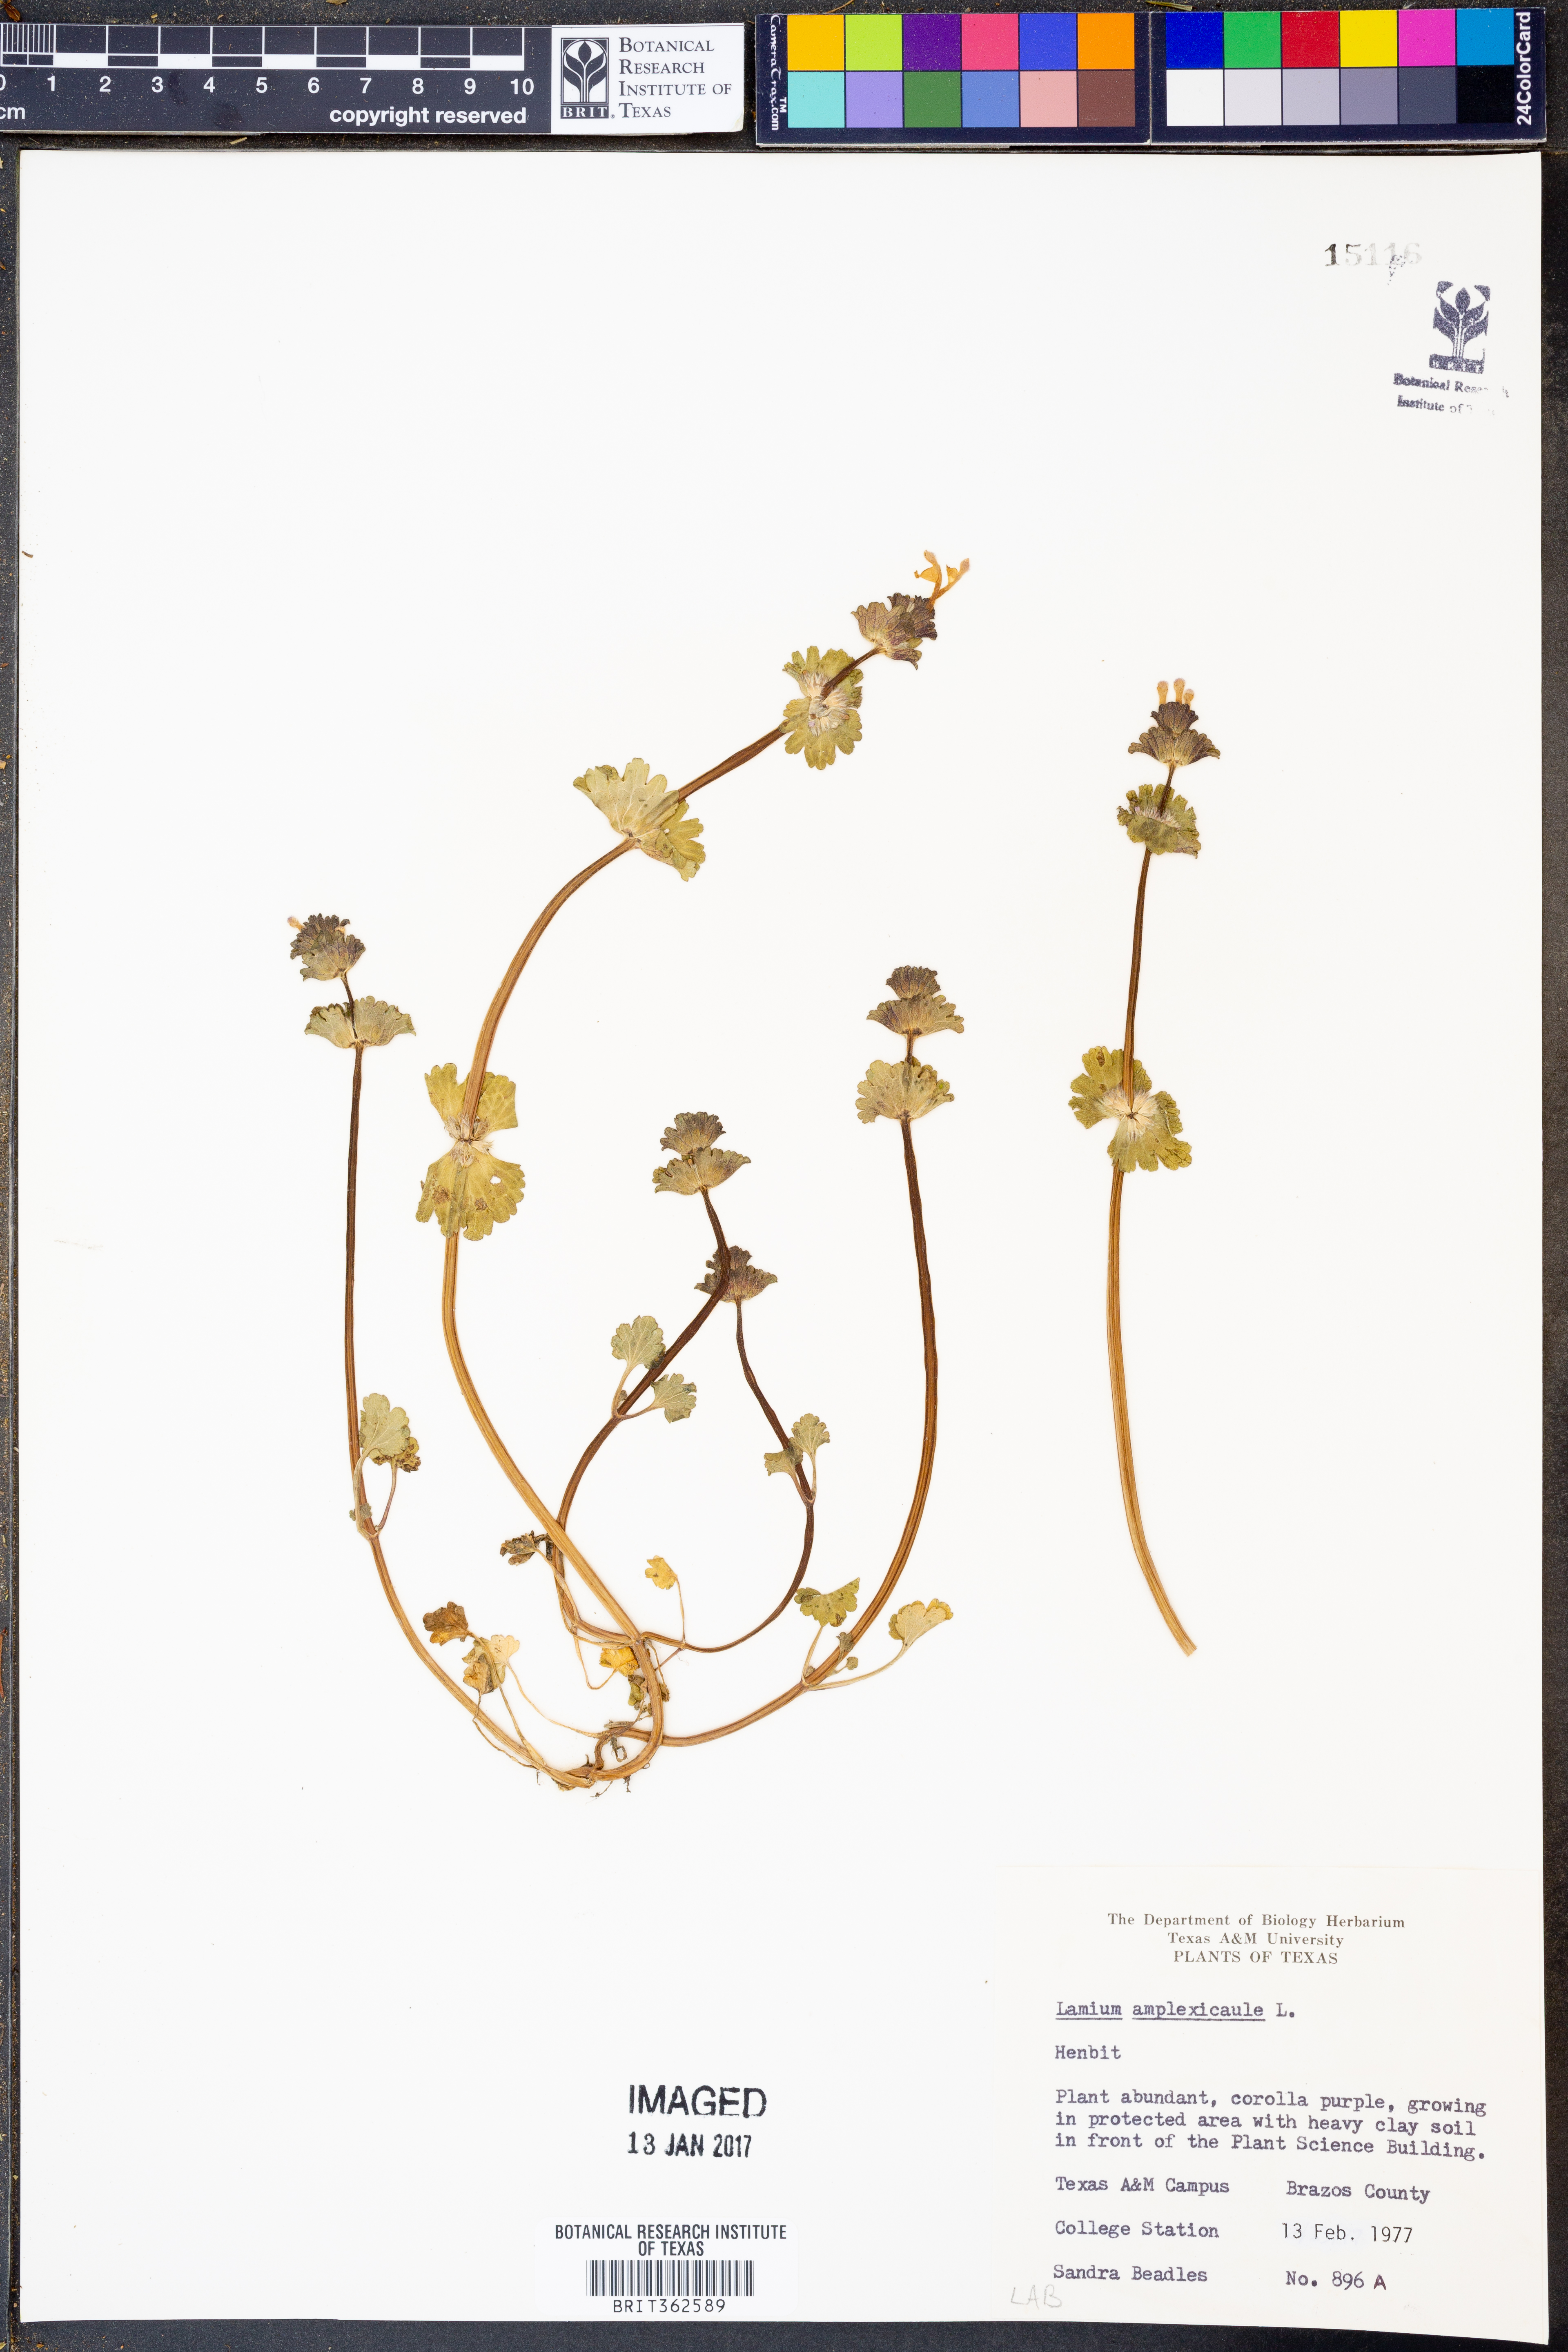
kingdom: Plantae
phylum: Tracheophyta
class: Magnoliopsida
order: Lamiales
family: Lamiaceae
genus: Lamium
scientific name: Lamium amplexicaule
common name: Henbit dead-nettle
